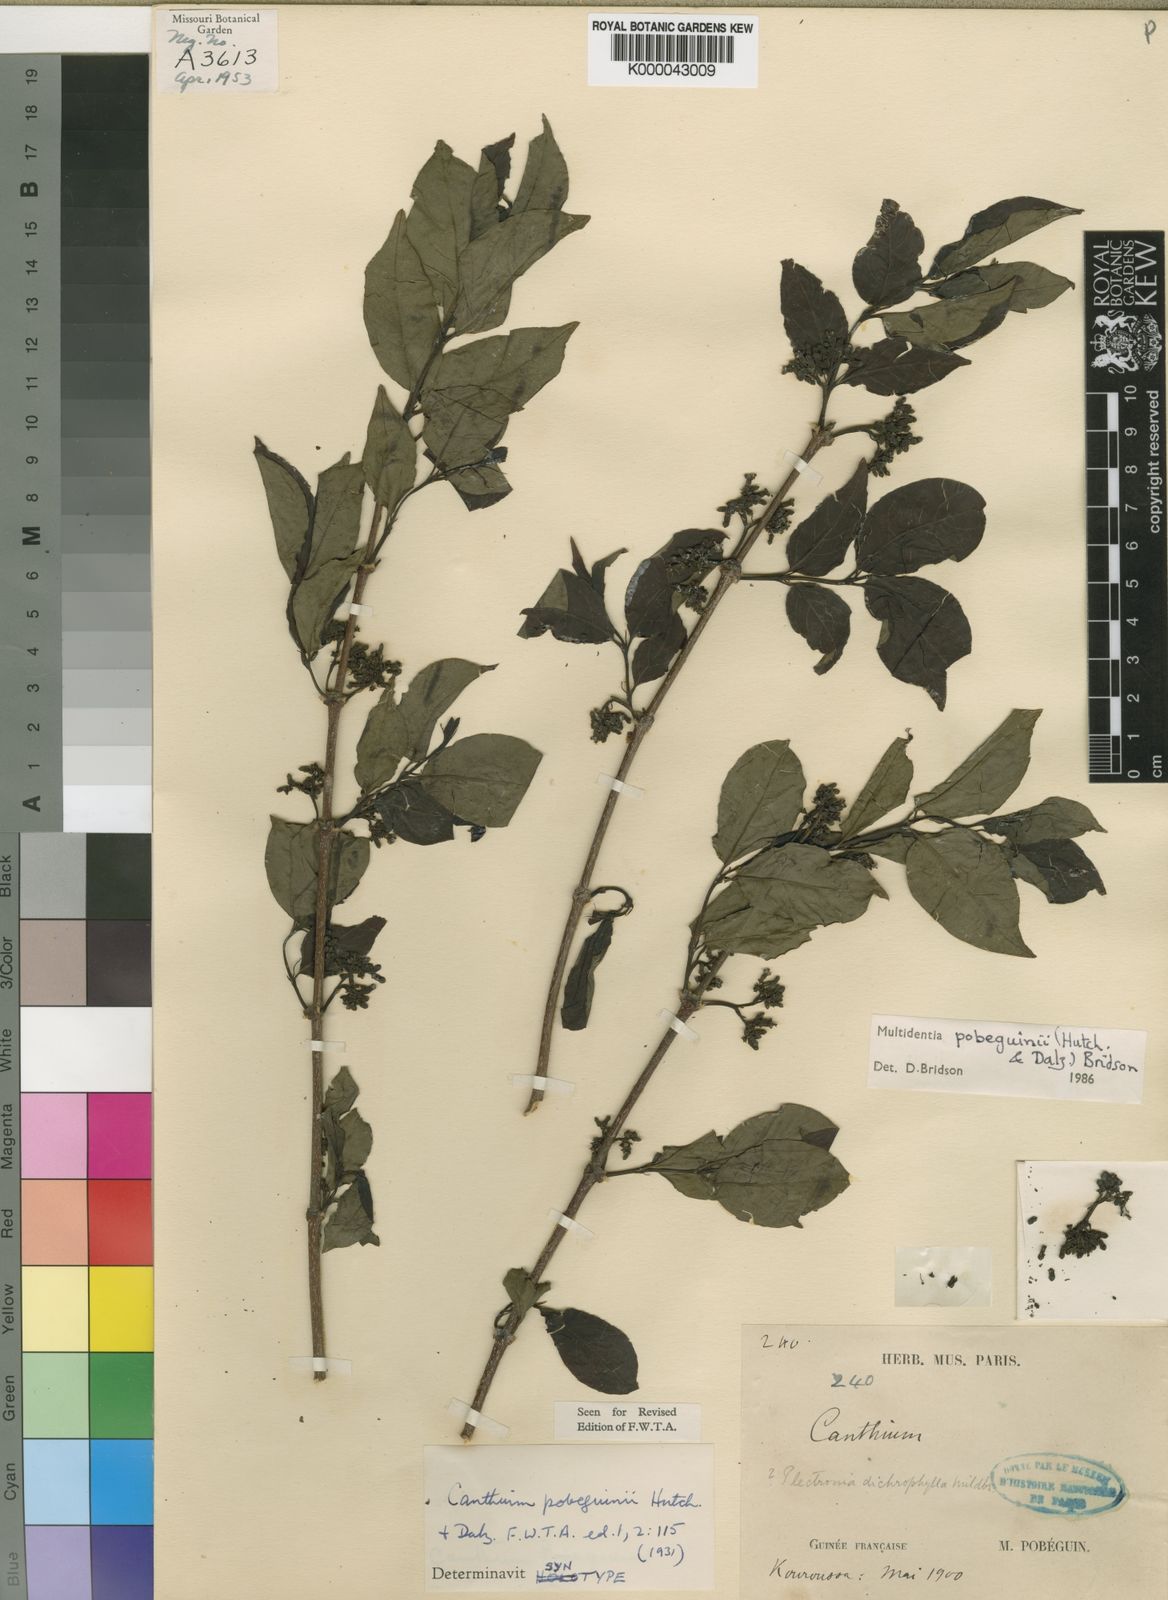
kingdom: Plantae
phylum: Tracheophyta
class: Magnoliopsida
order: Gentianales
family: Rubiaceae
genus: Multidentia
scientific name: Multidentia pobeguinii
